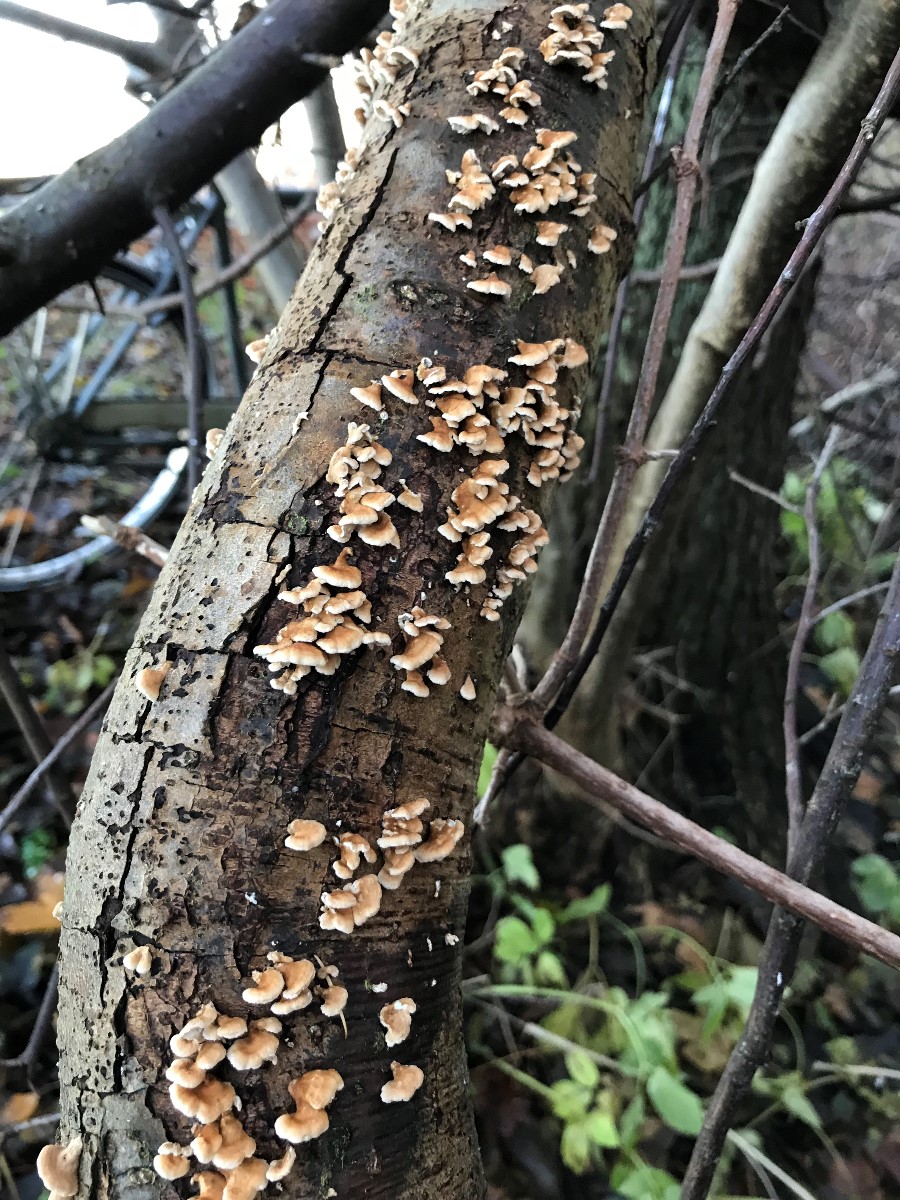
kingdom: Fungi
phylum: Basidiomycota
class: Agaricomycetes
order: Amylocorticiales
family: Amylocorticiaceae
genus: Plicaturopsis
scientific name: Plicaturopsis crispa
